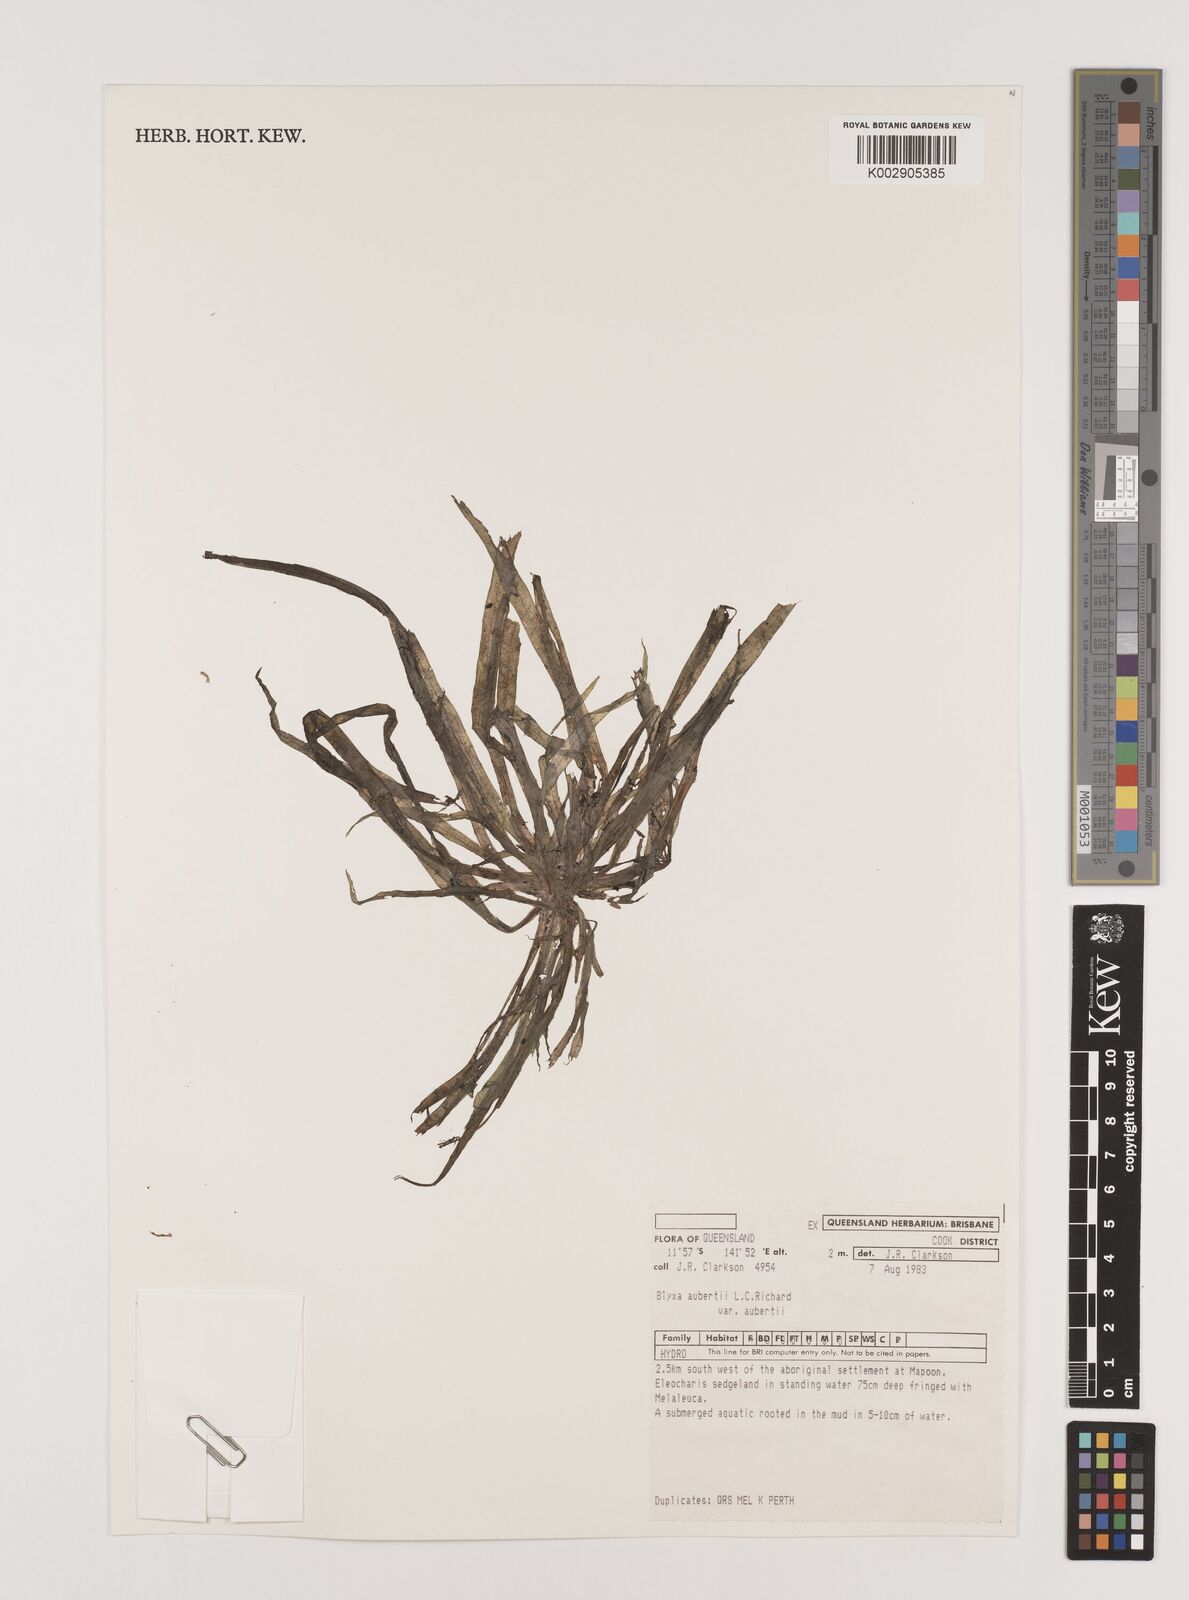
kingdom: Plantae
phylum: Tracheophyta
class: Liliopsida
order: Alismatales
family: Hydrocharitaceae
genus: Blyxa
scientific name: Blyxa aubertii
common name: Roundfruit blyxa
